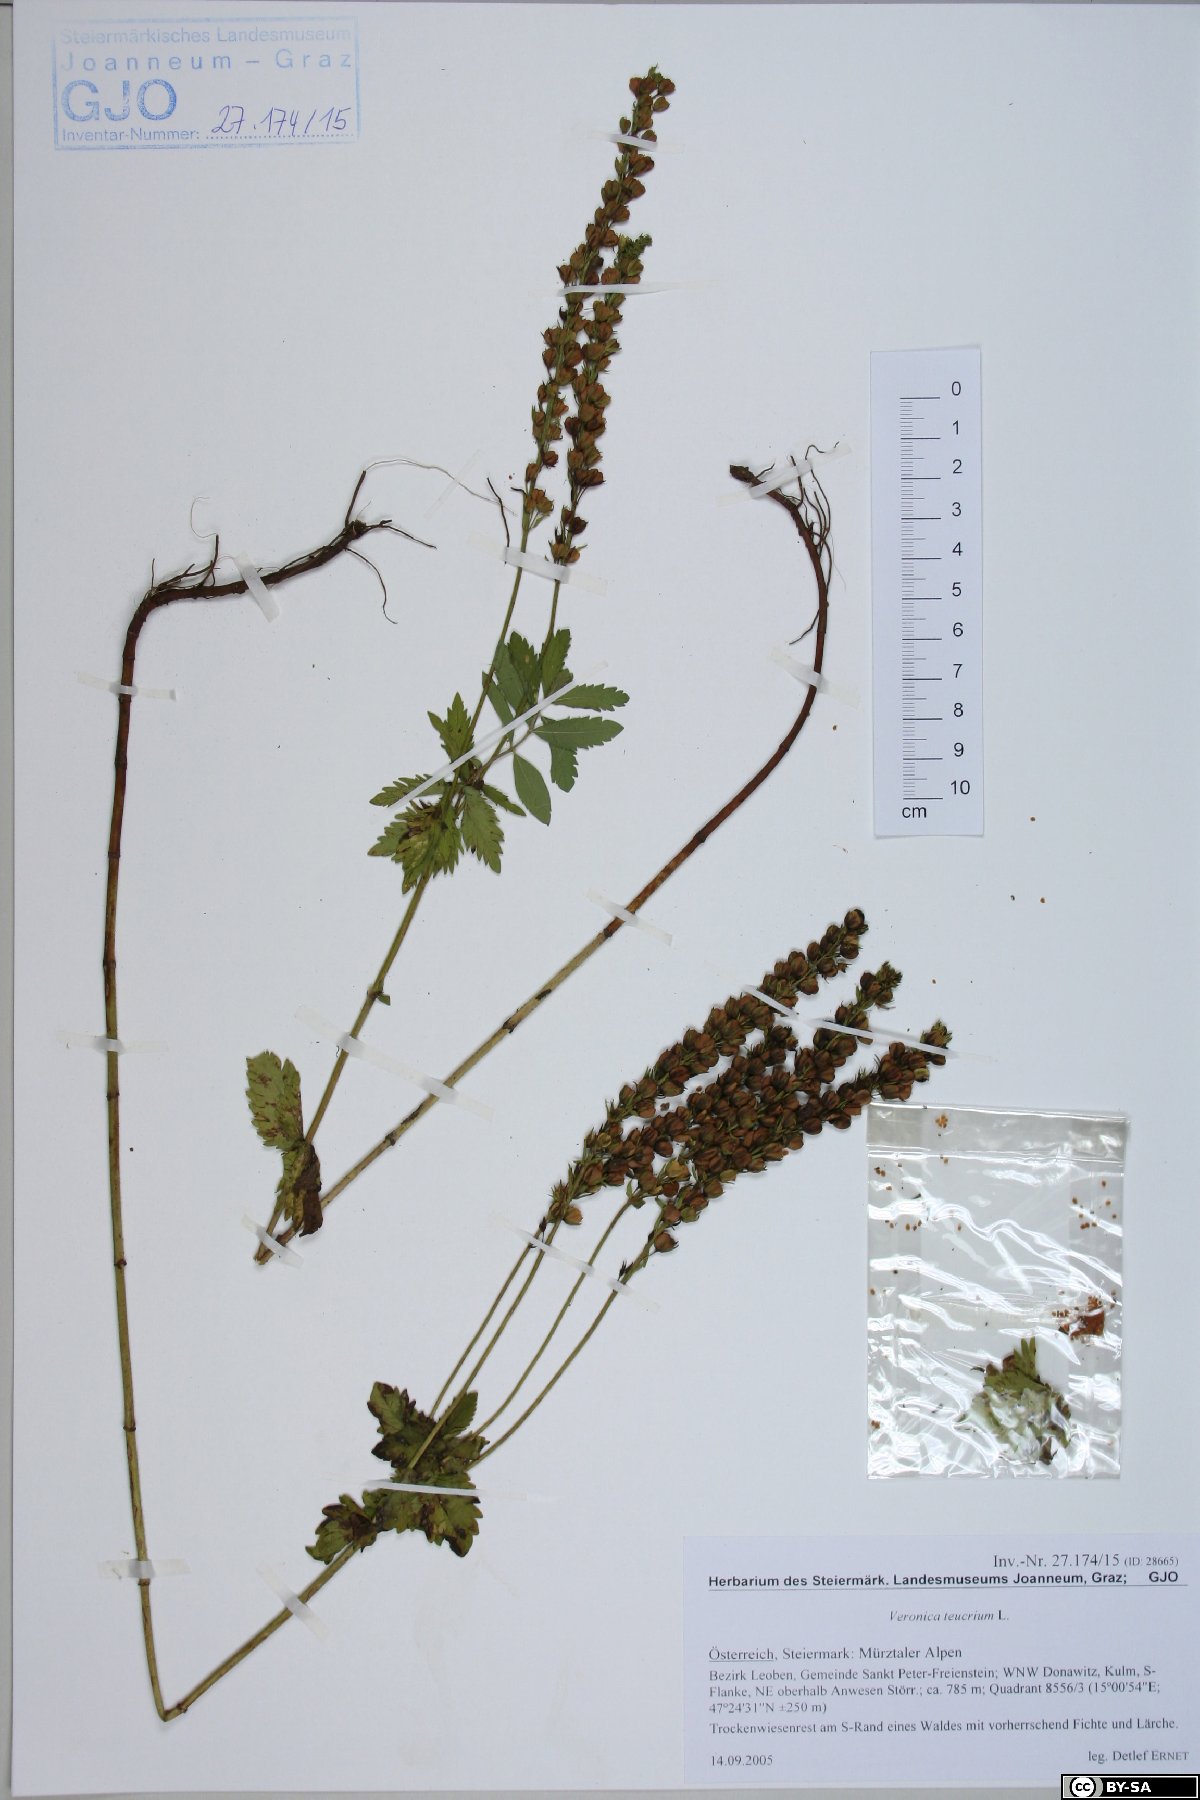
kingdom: Plantae
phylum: Tracheophyta
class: Magnoliopsida
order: Lamiales
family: Plantaginaceae
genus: Veronica
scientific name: Veronica teucrium
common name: Large speedwell
